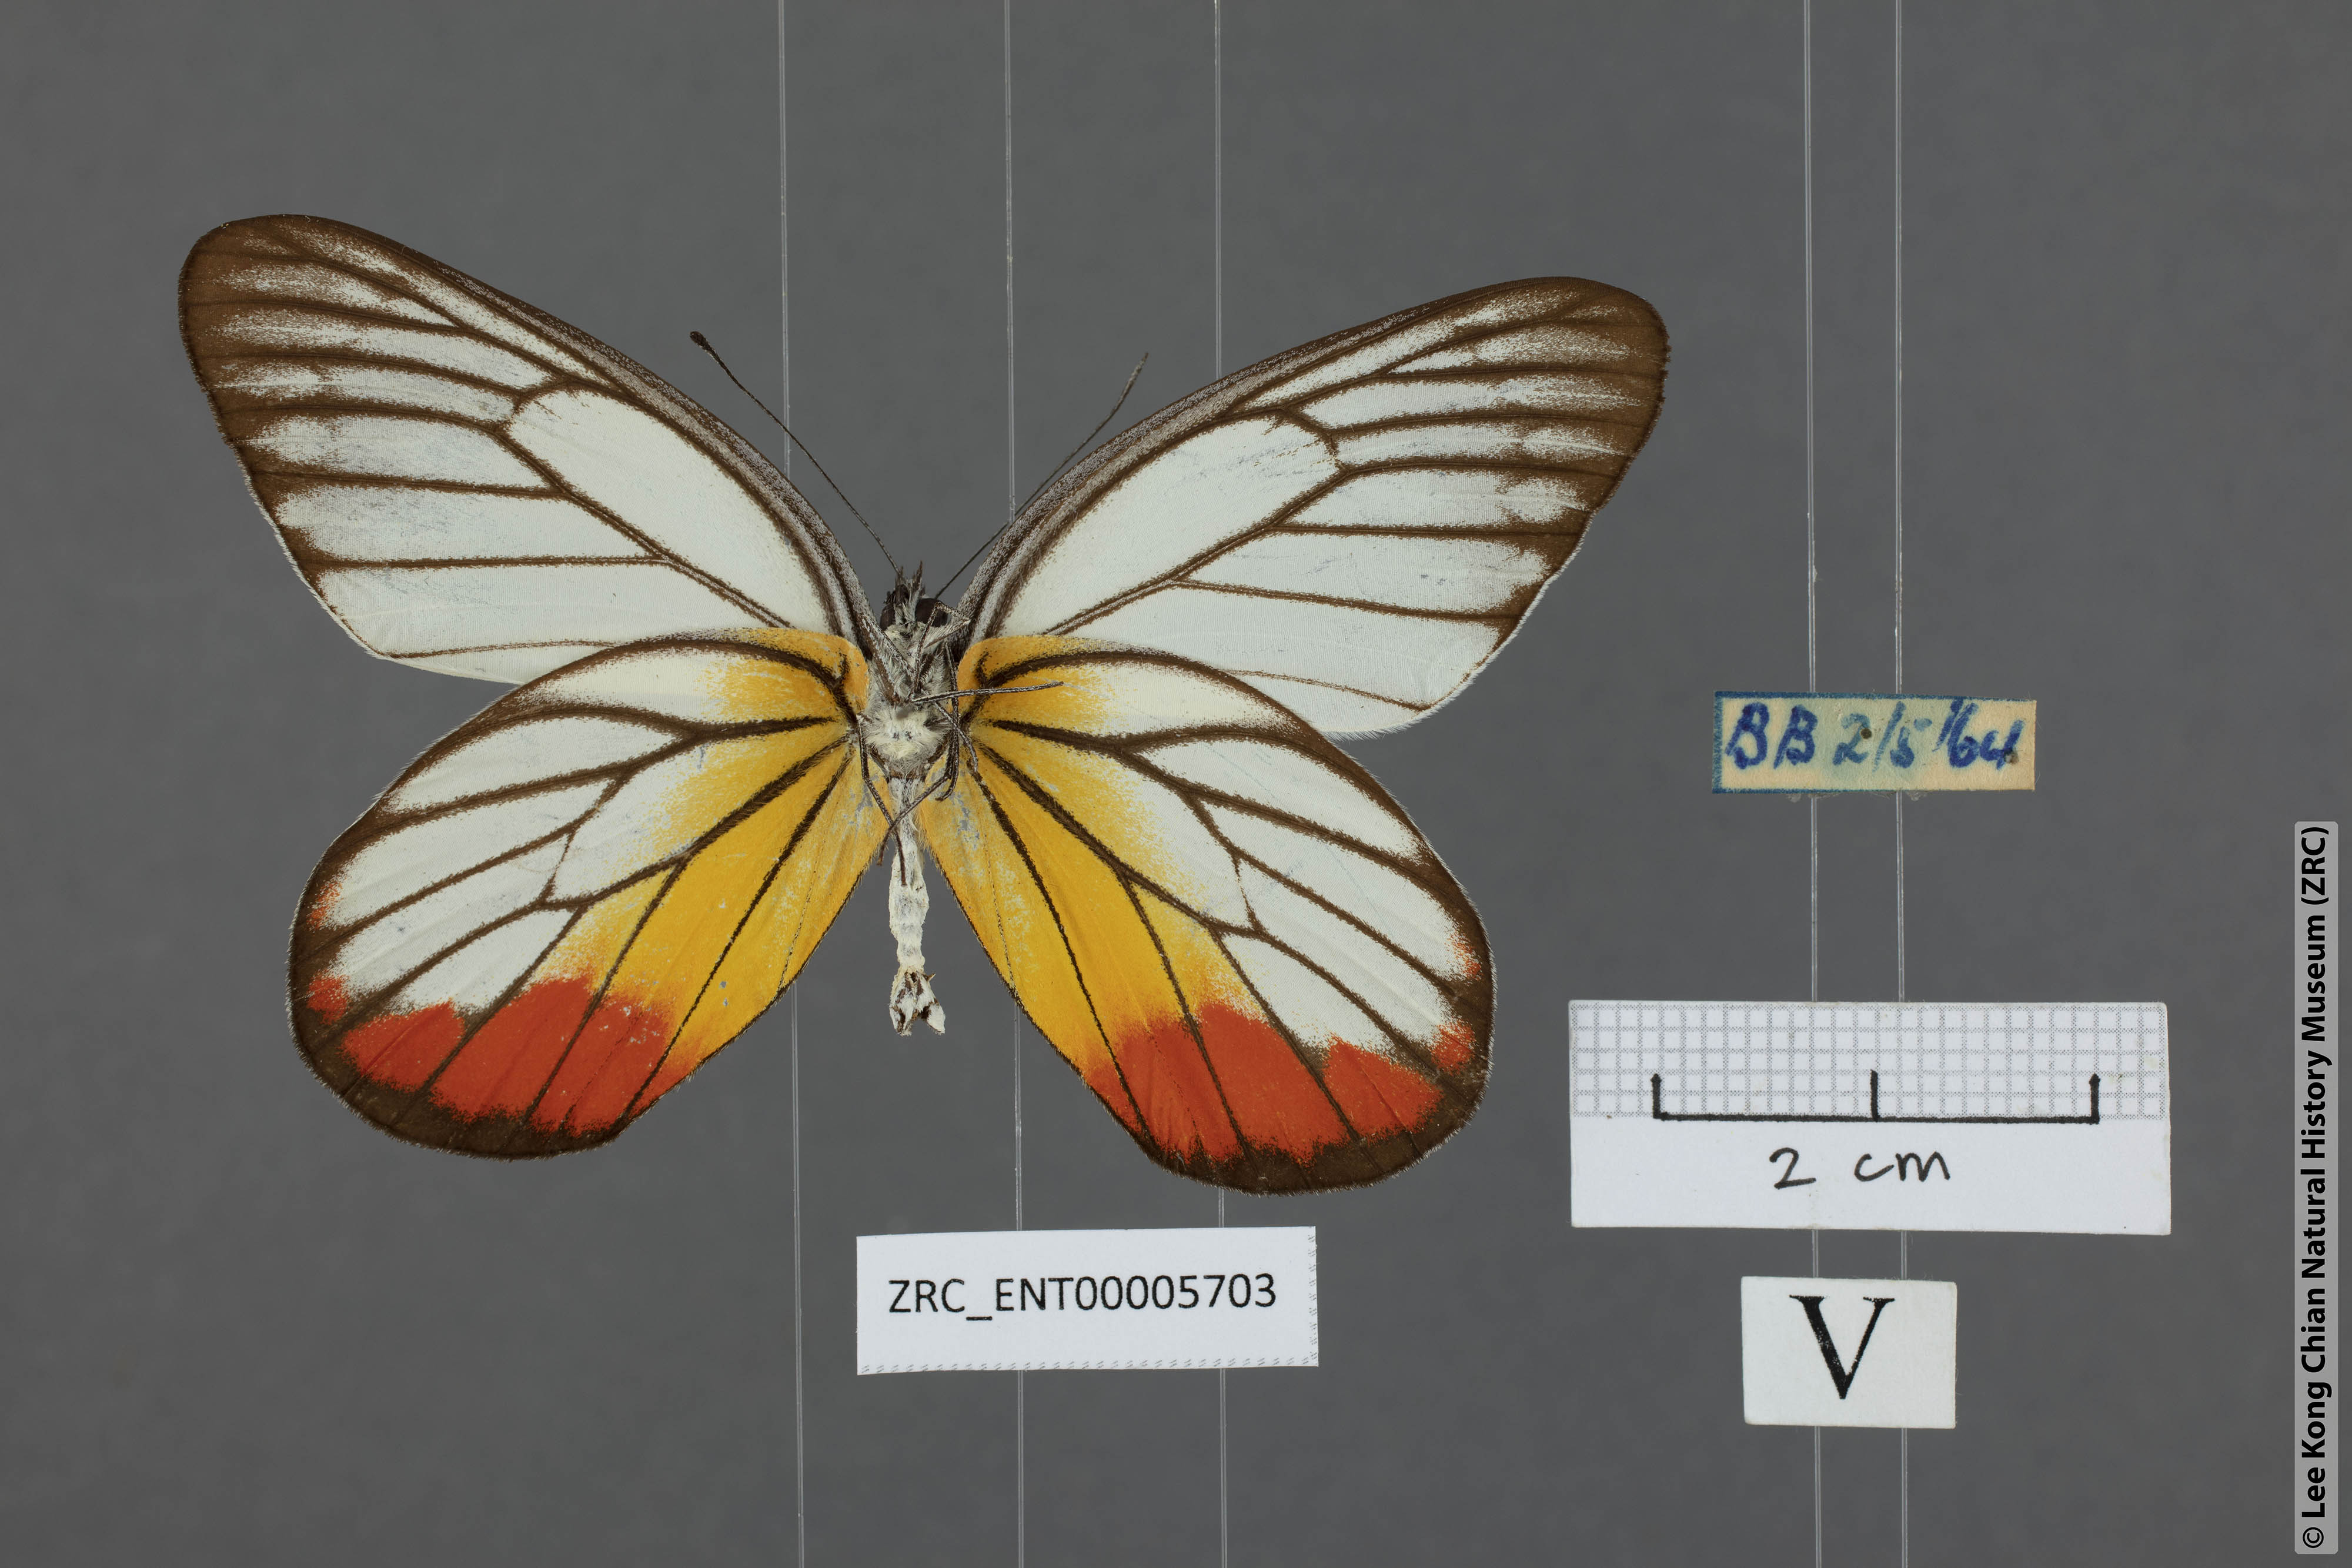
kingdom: Animalia
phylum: Arthropoda
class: Insecta
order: Lepidoptera
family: Pieridae
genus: Delias
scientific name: Delias hyparete
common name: Painted jezebel
